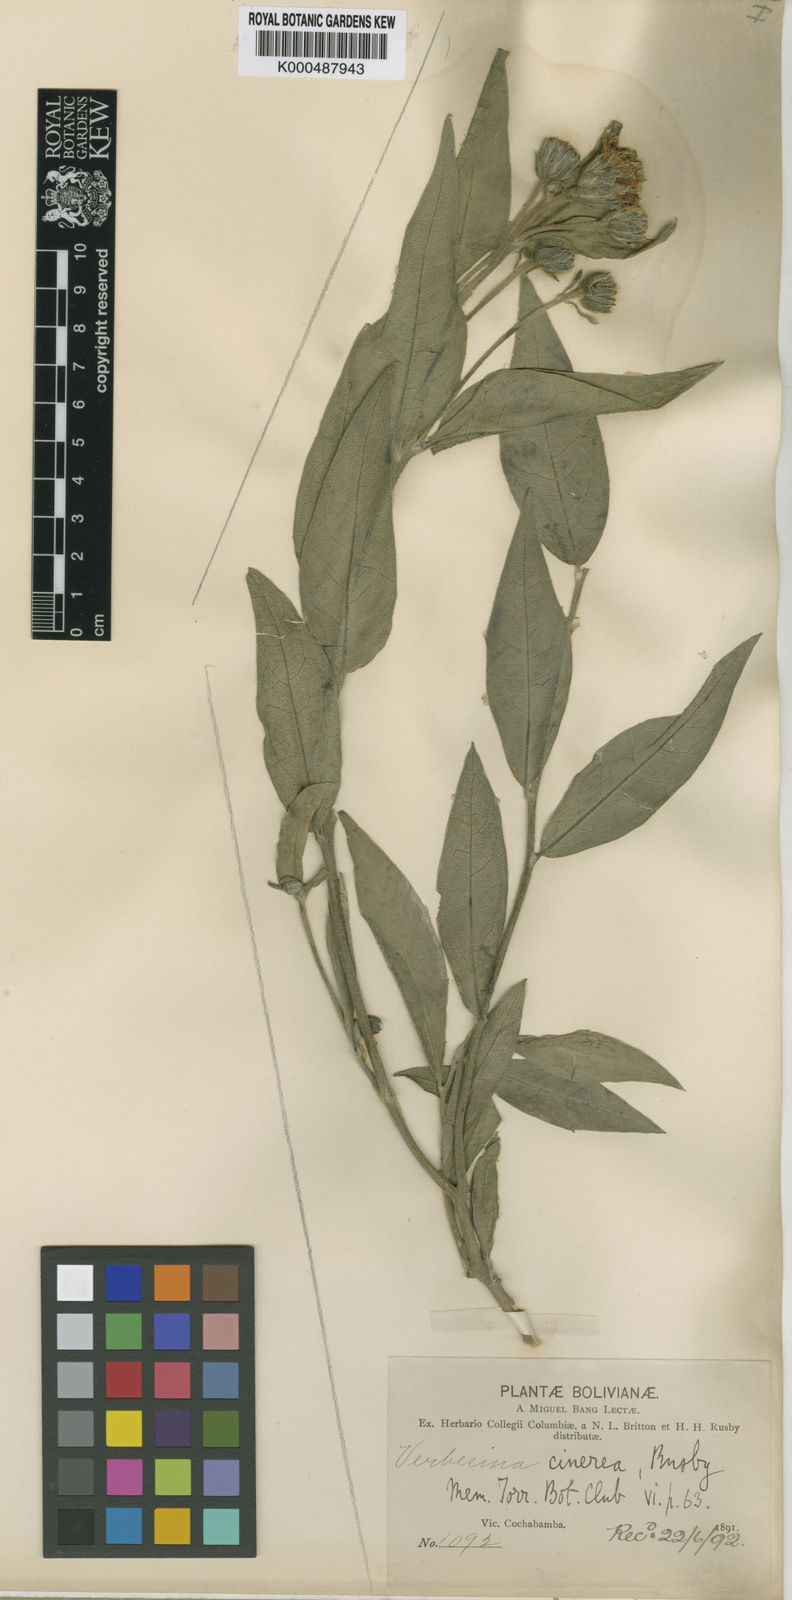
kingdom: Plantae
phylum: Tracheophyta
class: Magnoliopsida
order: Asterales
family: Asteraceae
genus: Verbesina
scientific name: Verbesina cinerea
